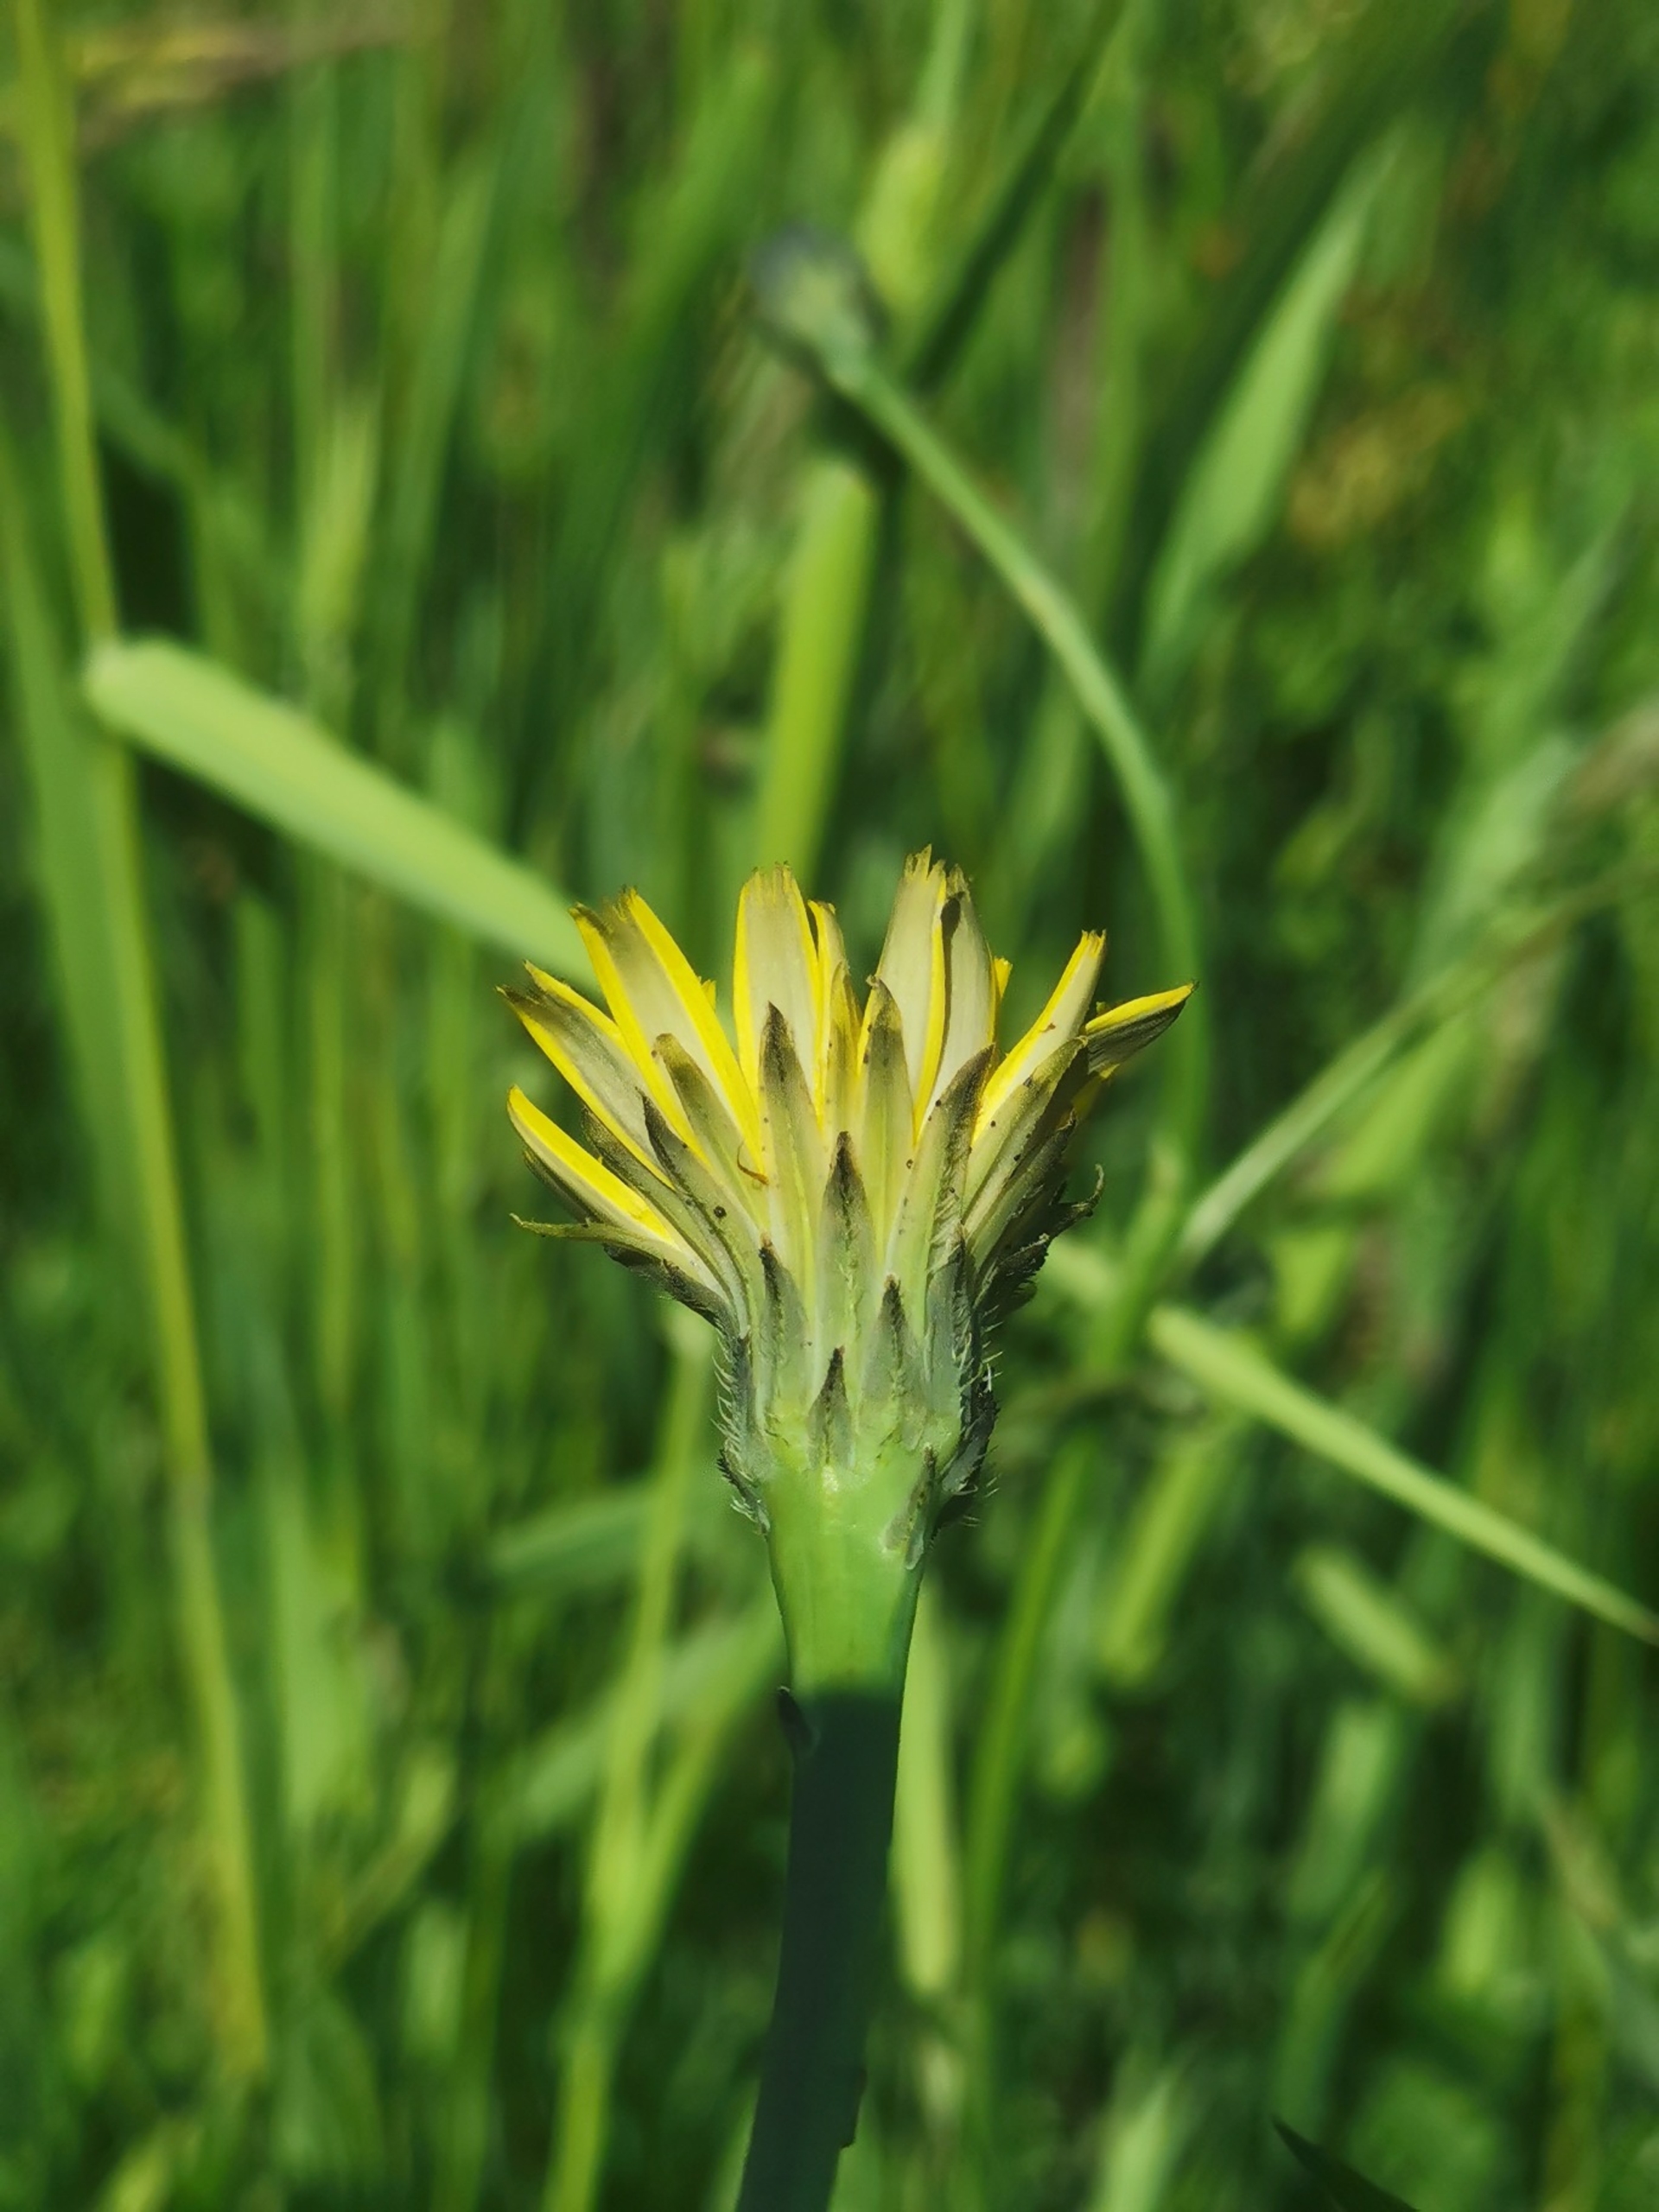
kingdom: Plantae
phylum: Tracheophyta
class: Magnoliopsida
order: Asterales
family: Asteraceae
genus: Hypochaeris
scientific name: Hypochaeris radicata
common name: Almindelig kongepen
